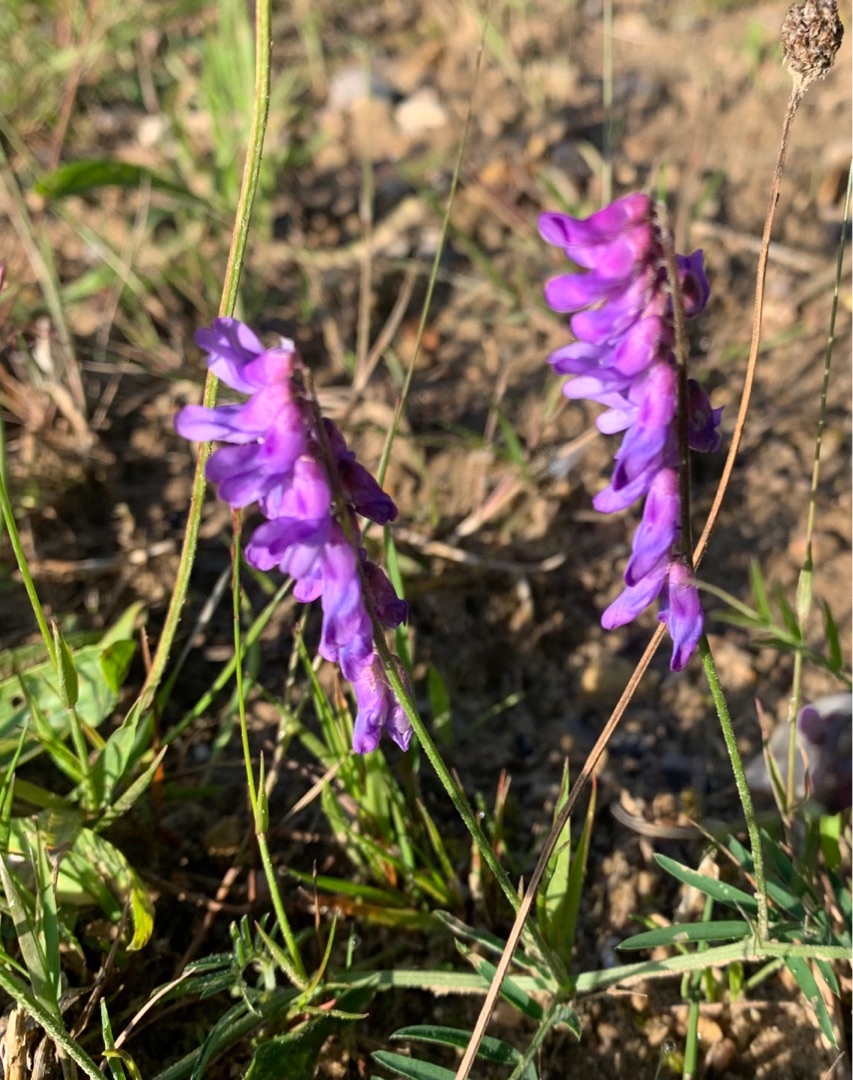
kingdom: Plantae
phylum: Tracheophyta
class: Magnoliopsida
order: Fabales
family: Fabaceae
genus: Vicia
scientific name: Vicia cracca
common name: Muse-vikke
